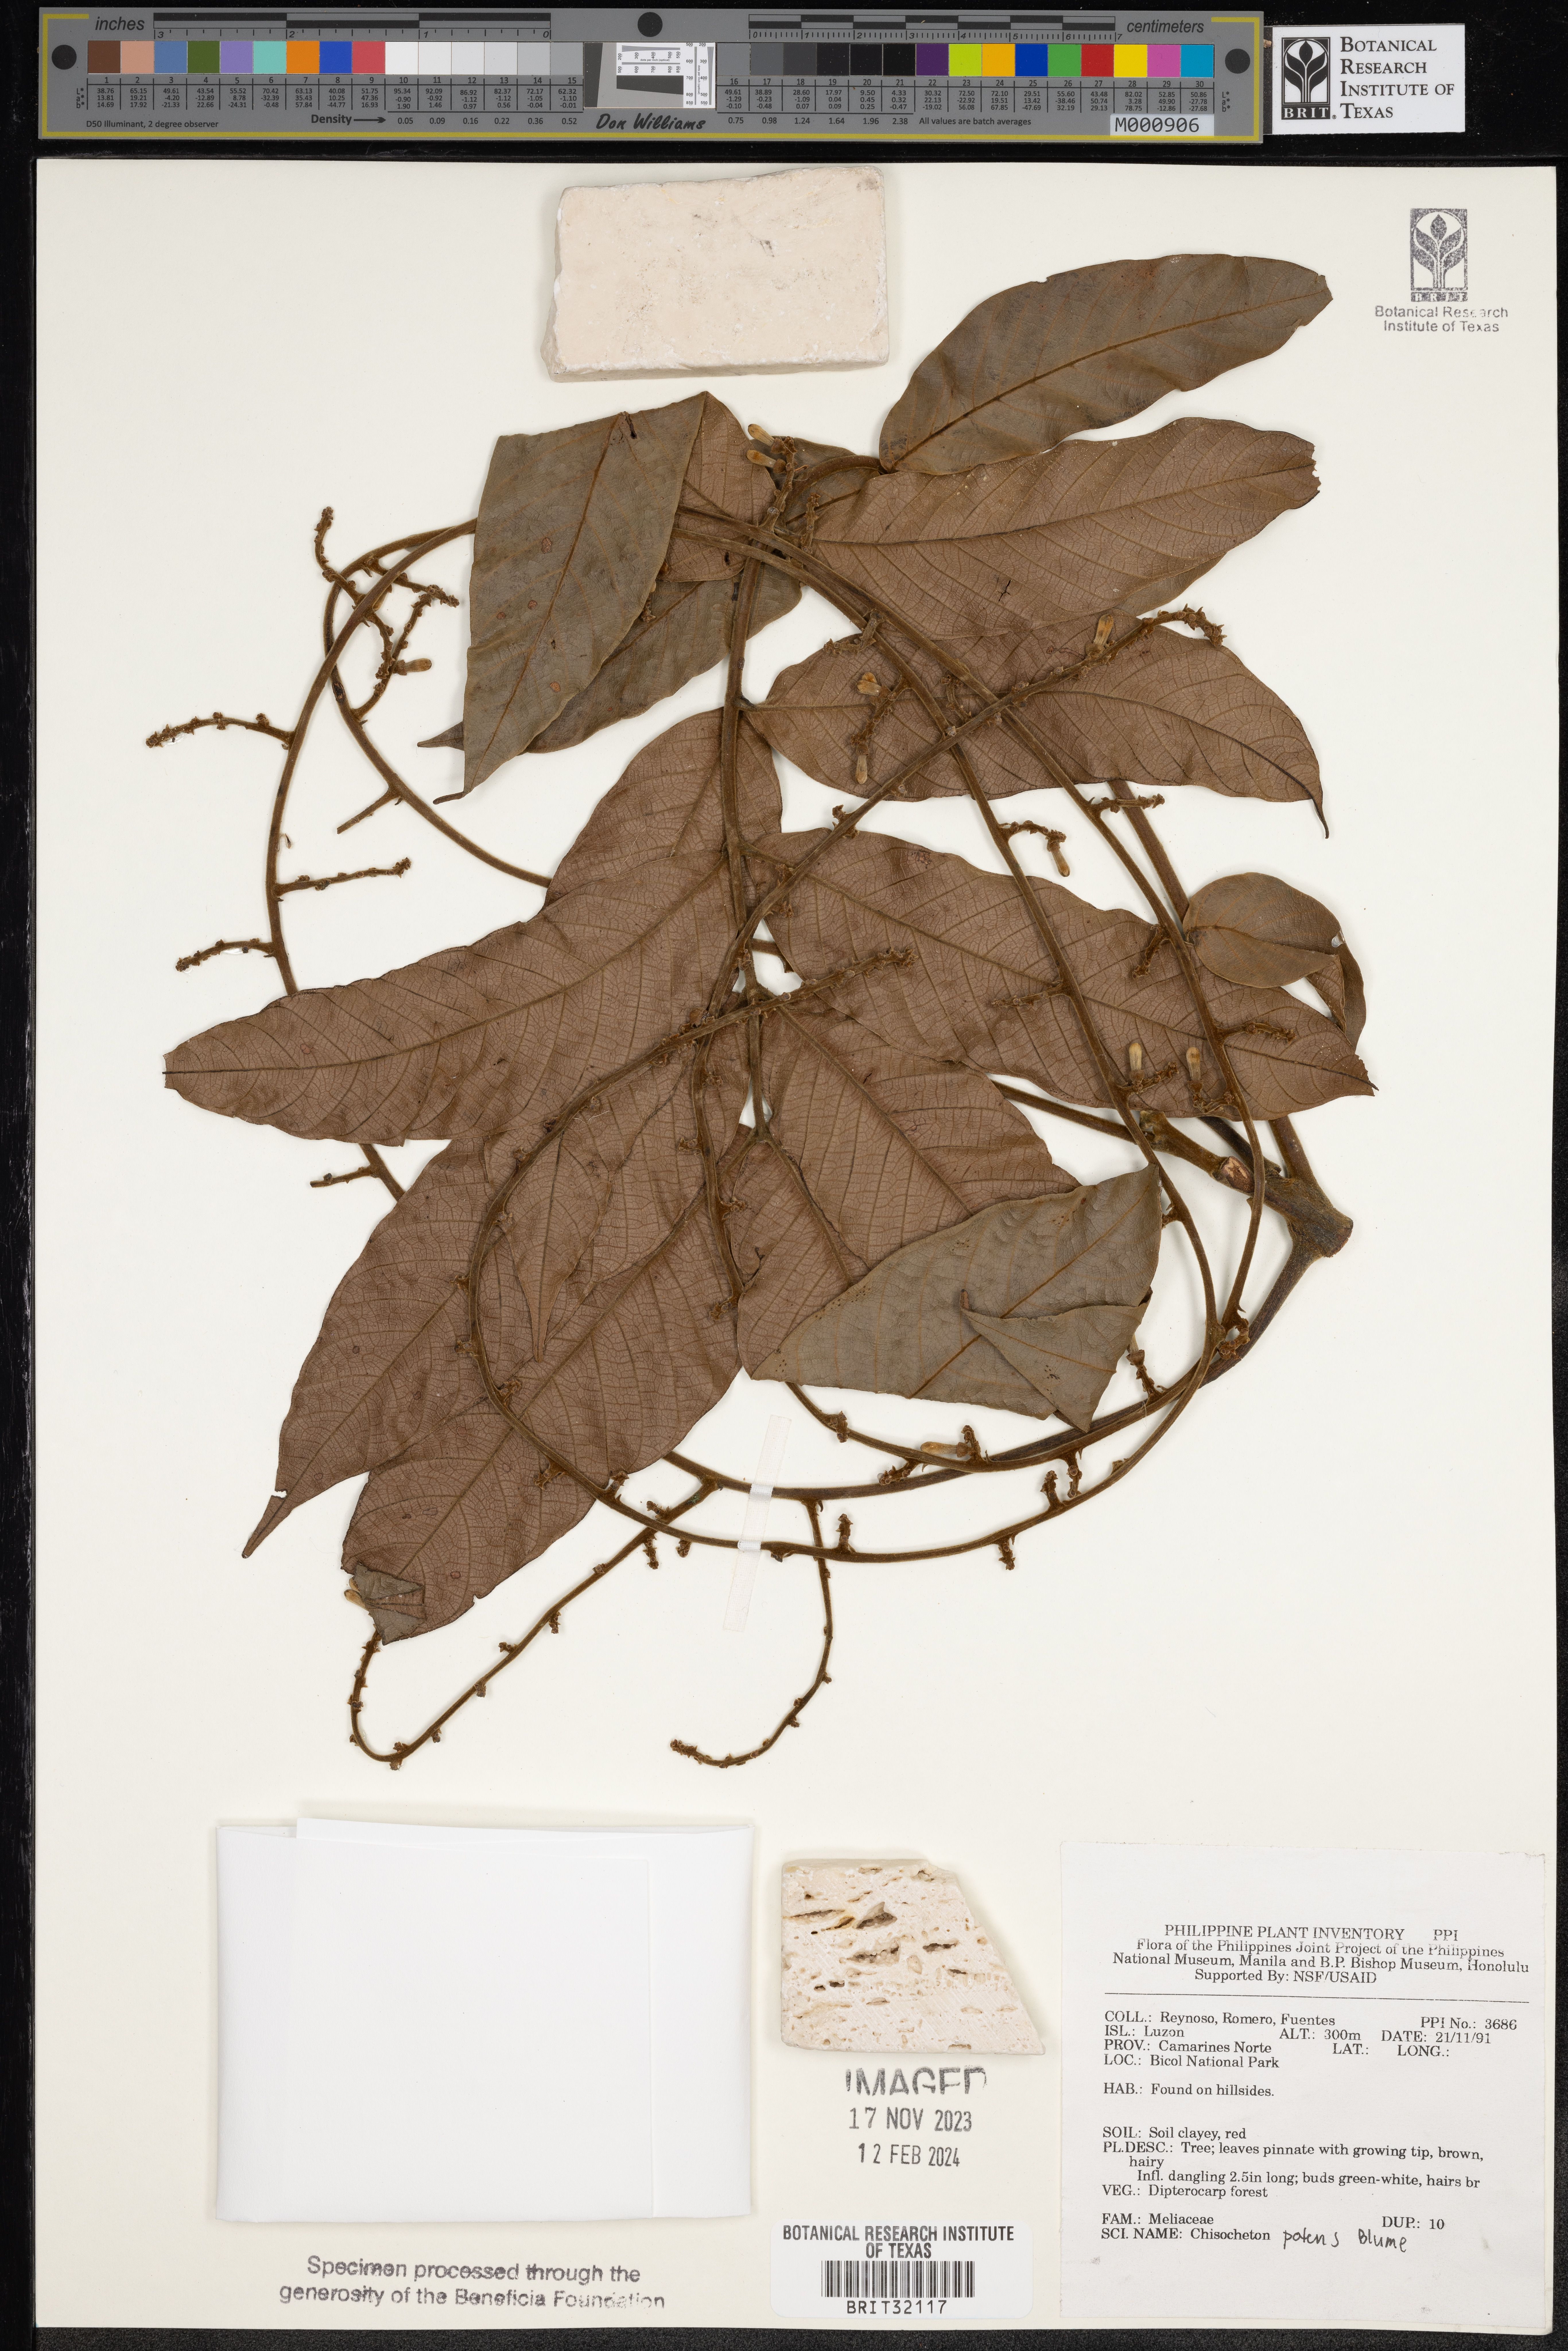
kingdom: Plantae
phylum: Tracheophyta
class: Magnoliopsida
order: Sapindales
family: Meliaceae
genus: Chisocheton
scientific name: Chisocheton patens
